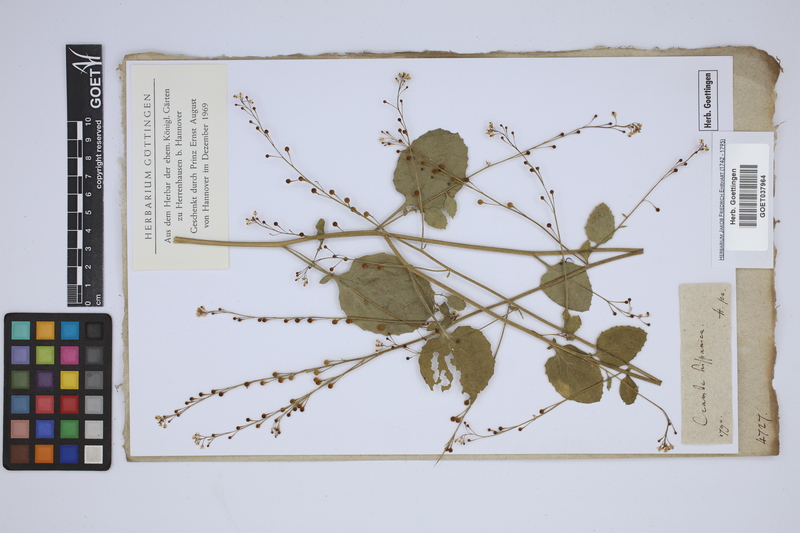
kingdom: Plantae
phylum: Tracheophyta
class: Magnoliopsida
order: Brassicales
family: Brassicaceae
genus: Crambe
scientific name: Crambe hispanica
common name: Abyssinian mustard
